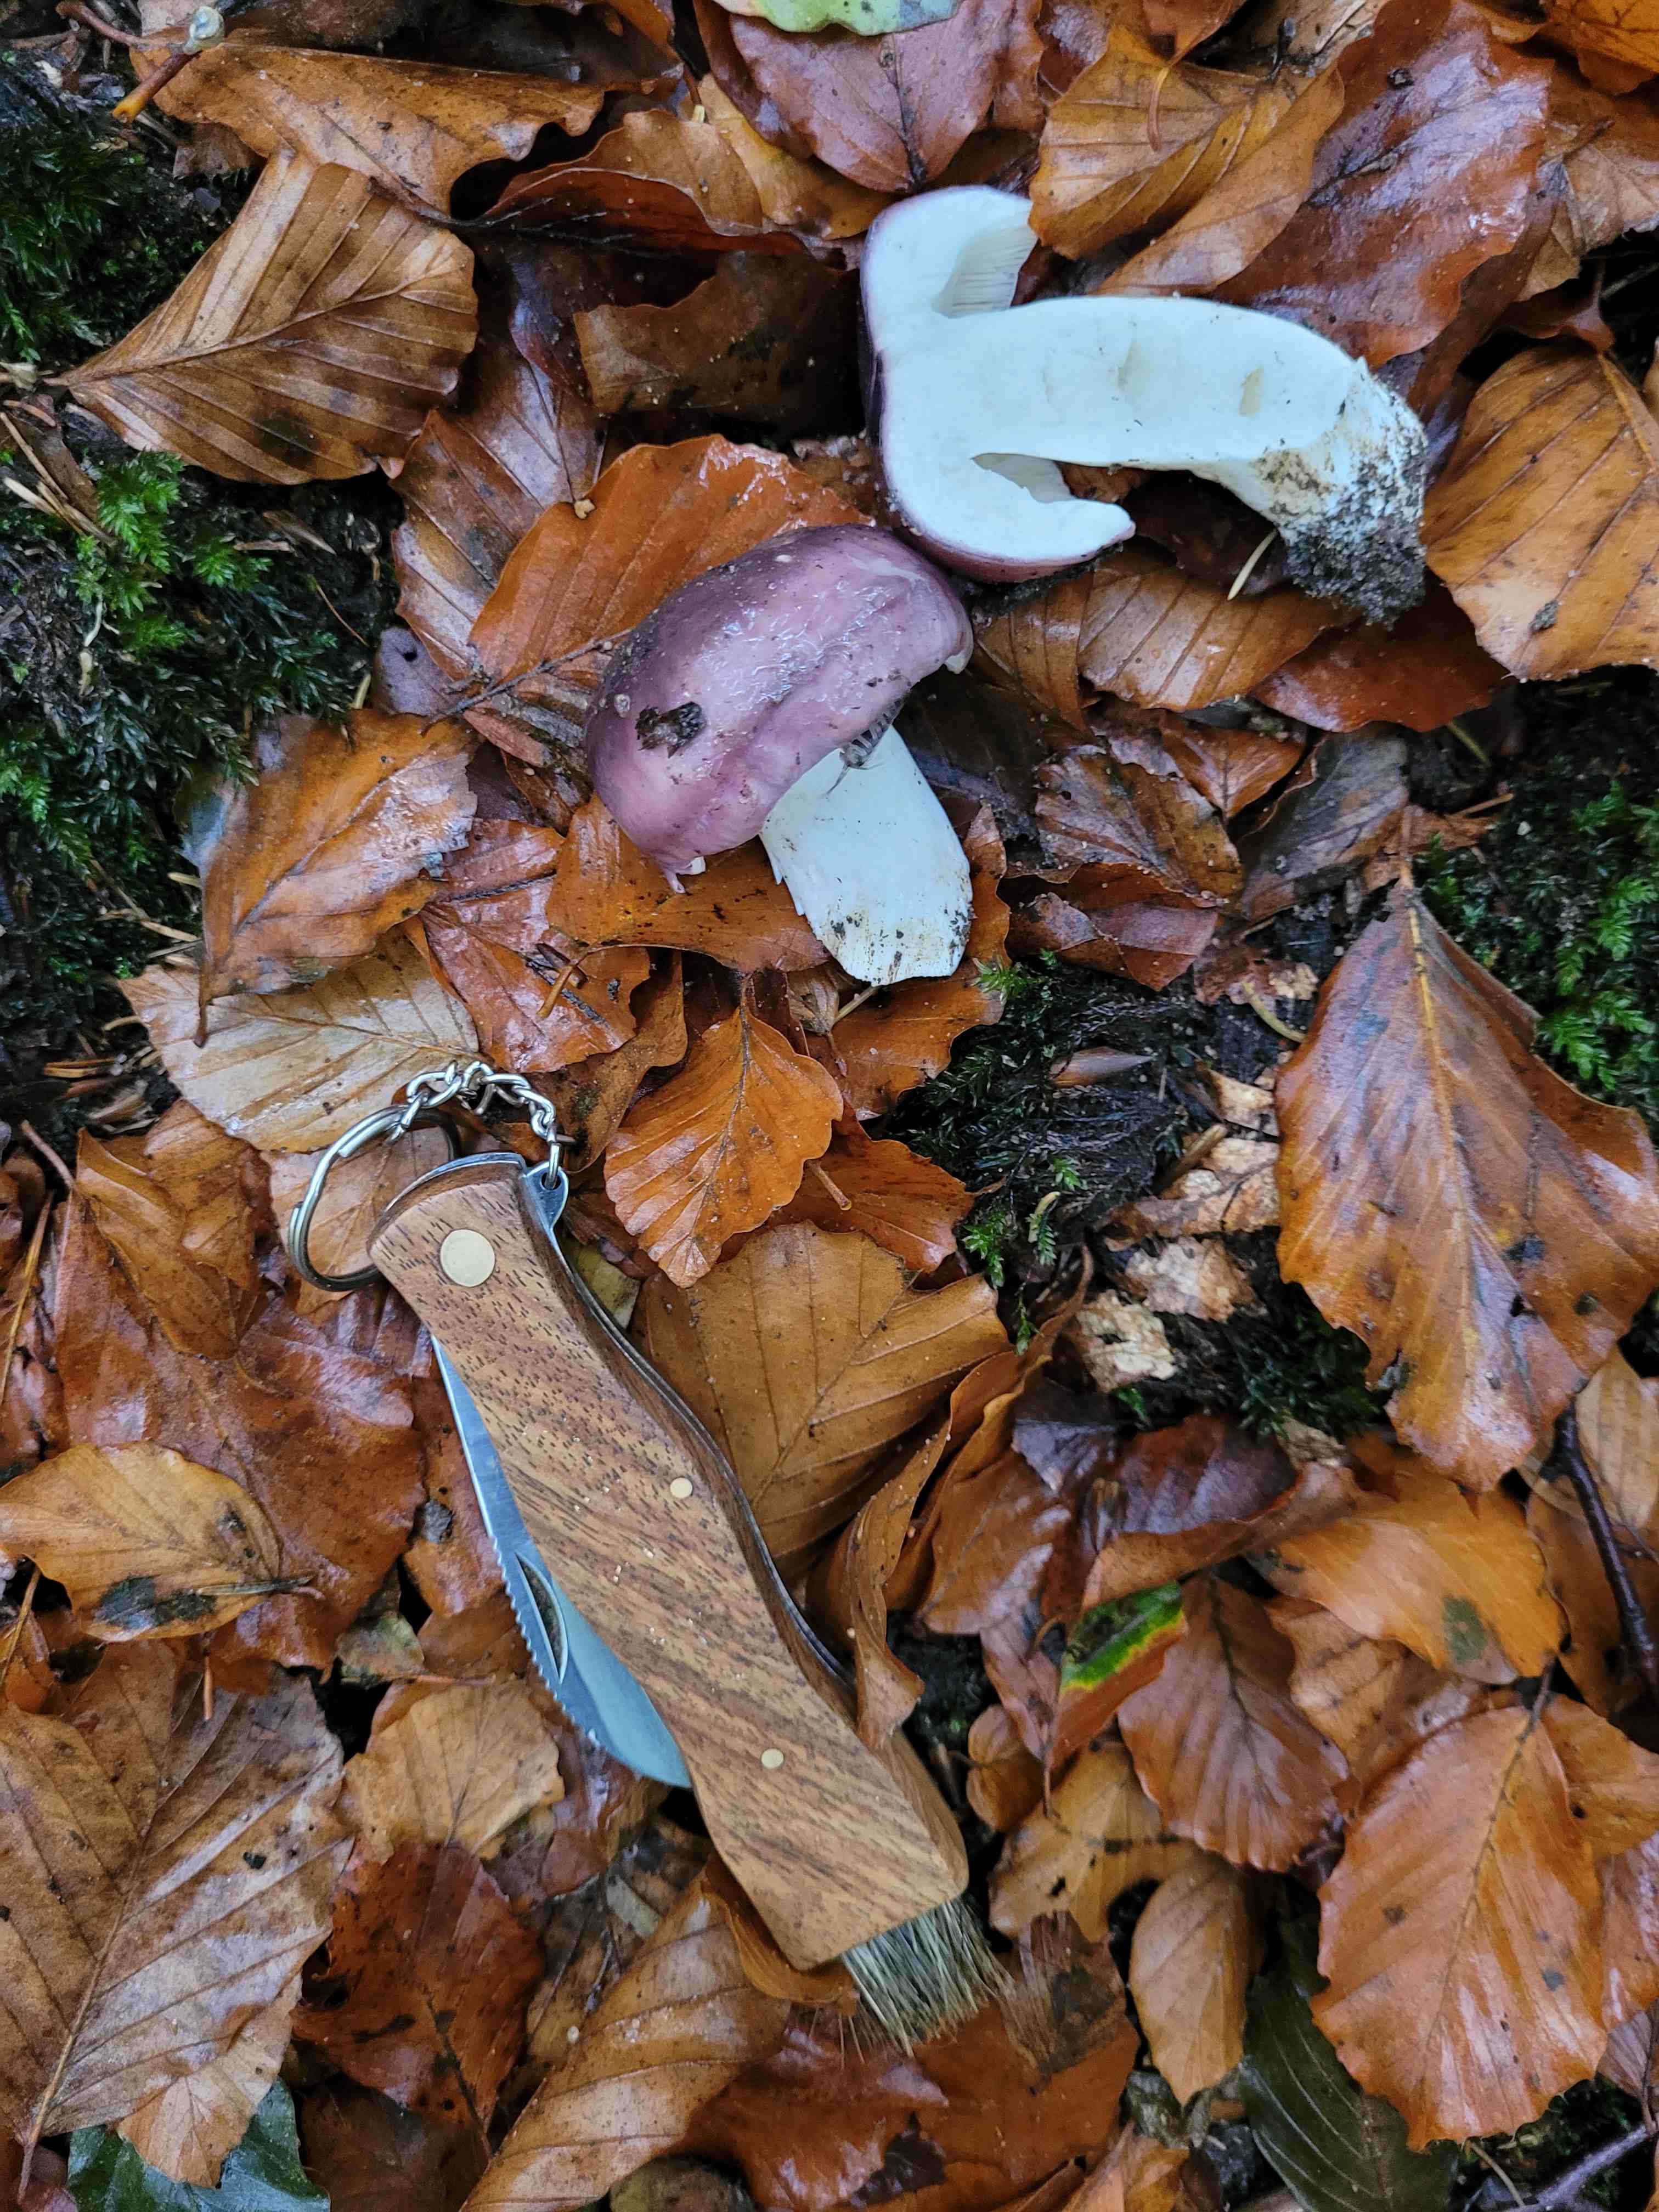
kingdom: Fungi
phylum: Basidiomycota
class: Agaricomycetes
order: Russulales
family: Russulaceae
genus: Russula
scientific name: Russula
